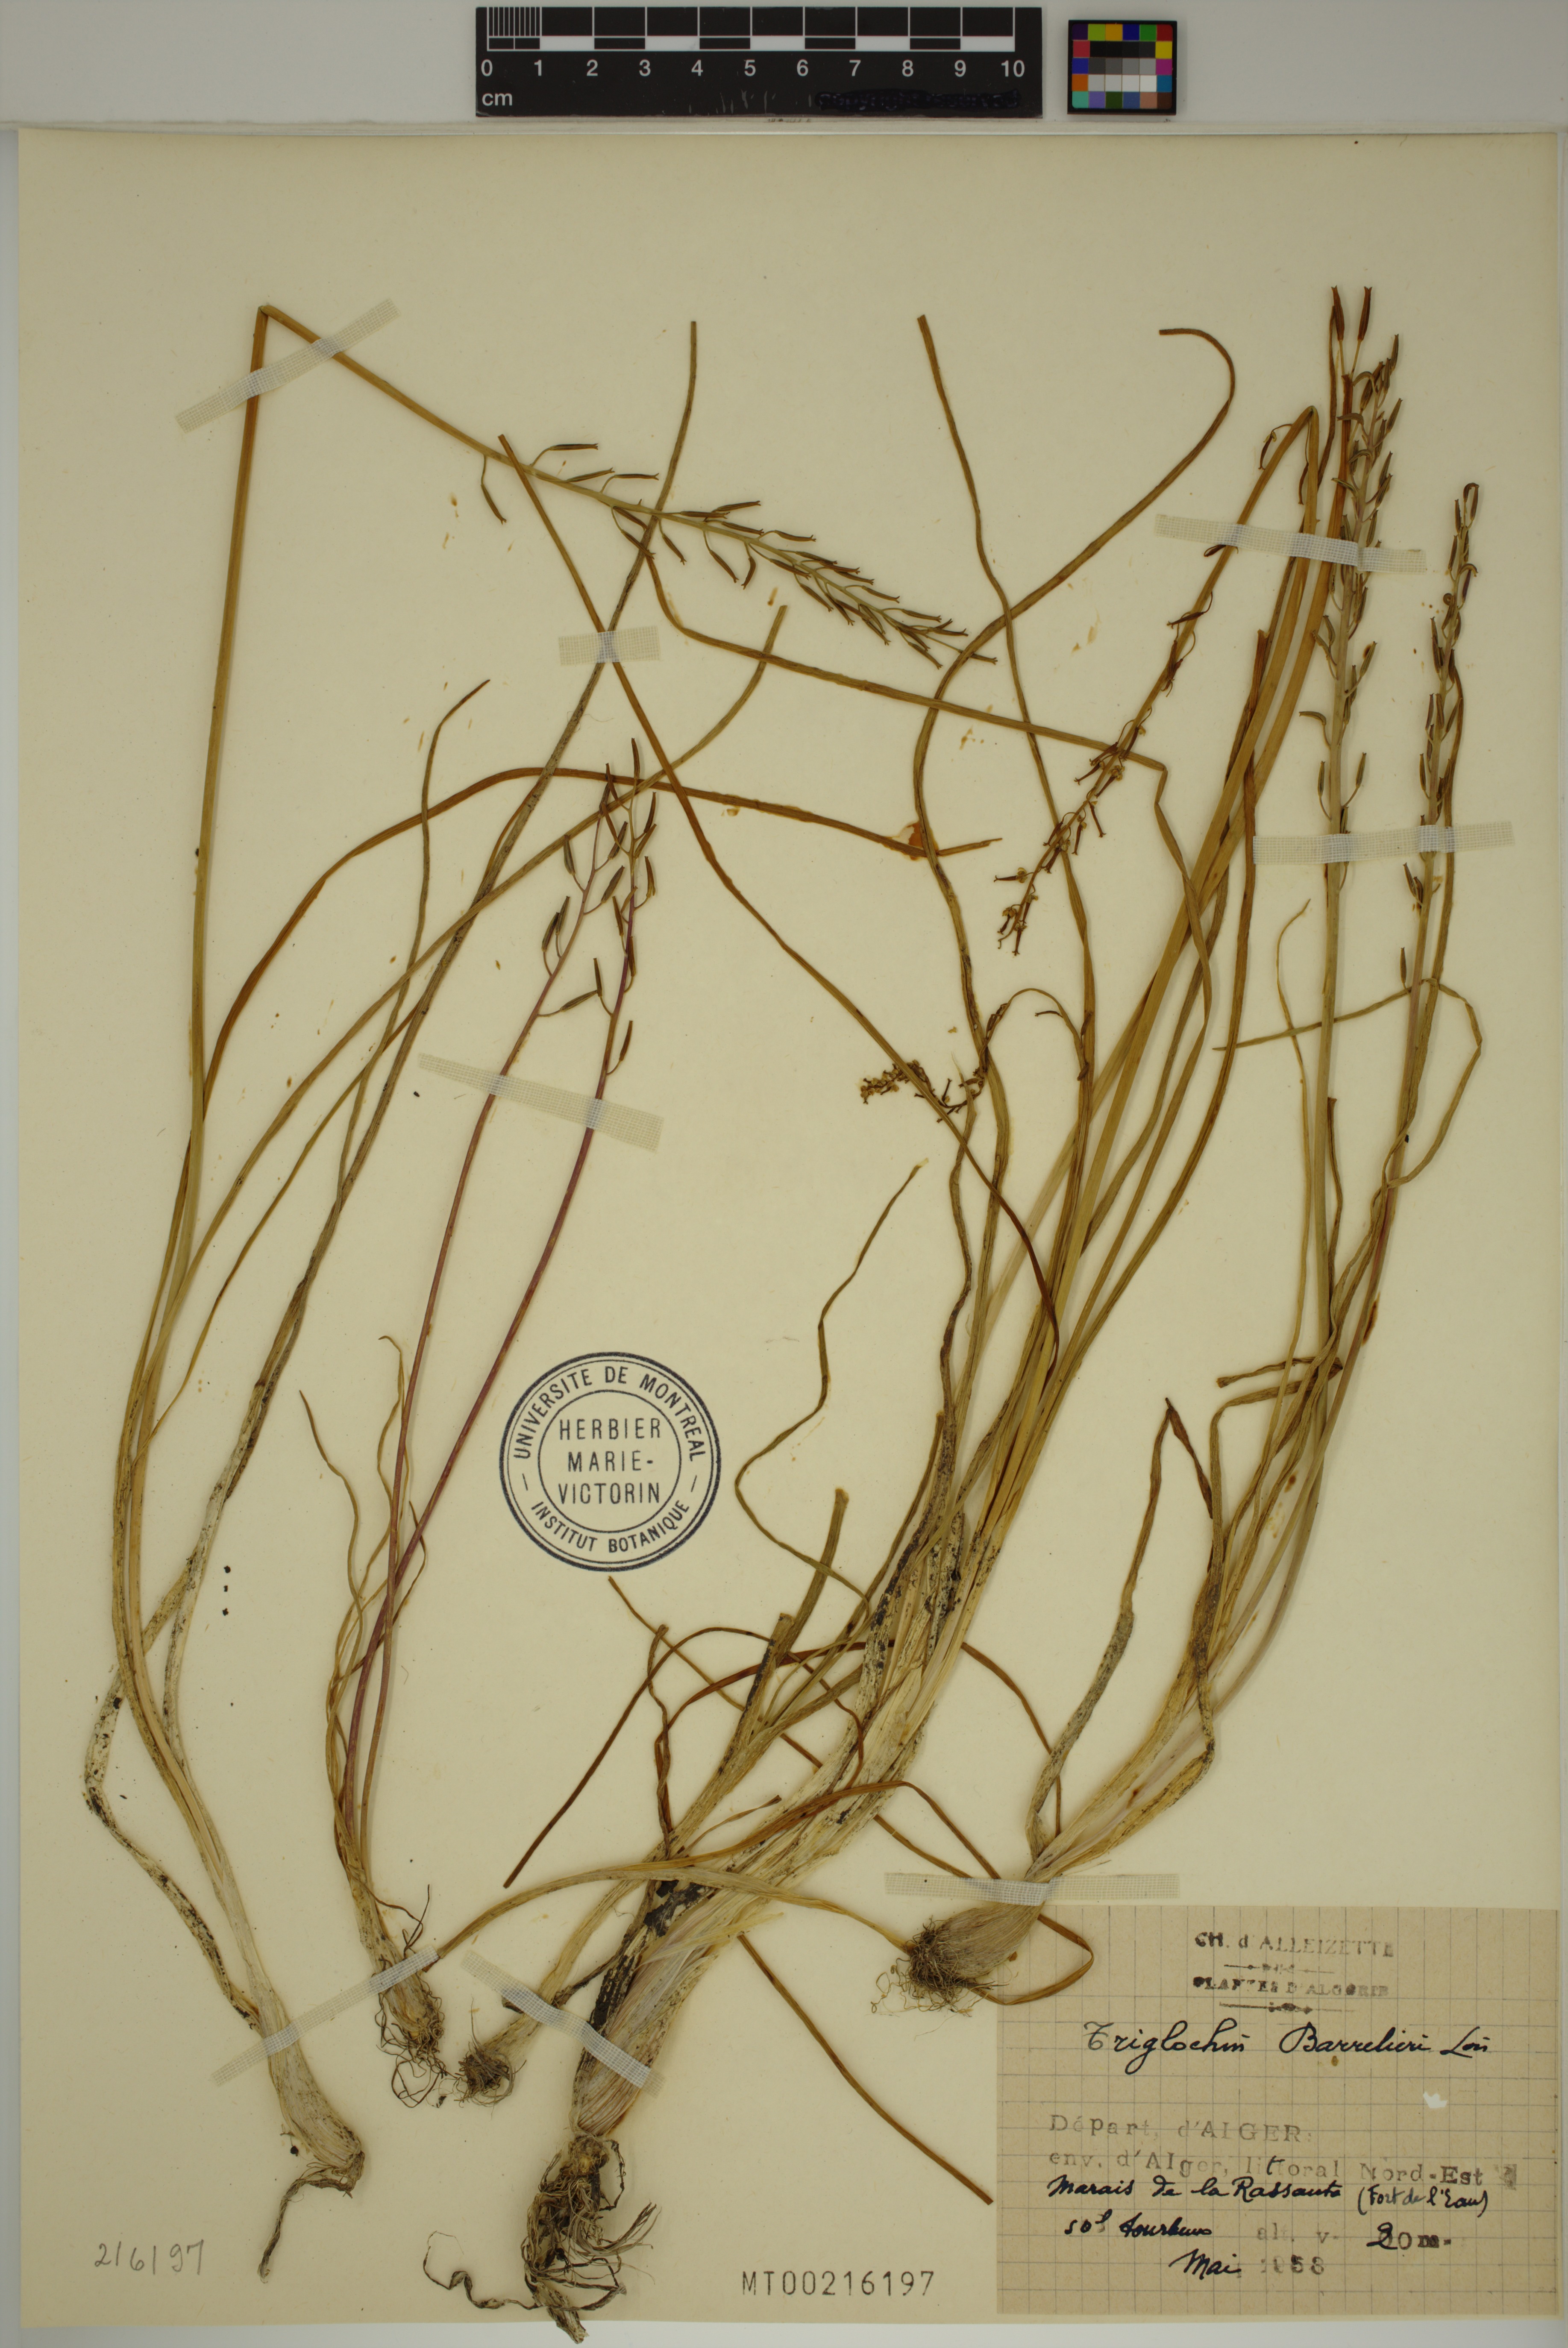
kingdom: Plantae
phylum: Tracheophyta
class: Liliopsida
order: Alismatales
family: Juncaginaceae
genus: Triglochin
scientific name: Triglochin barrelieri
